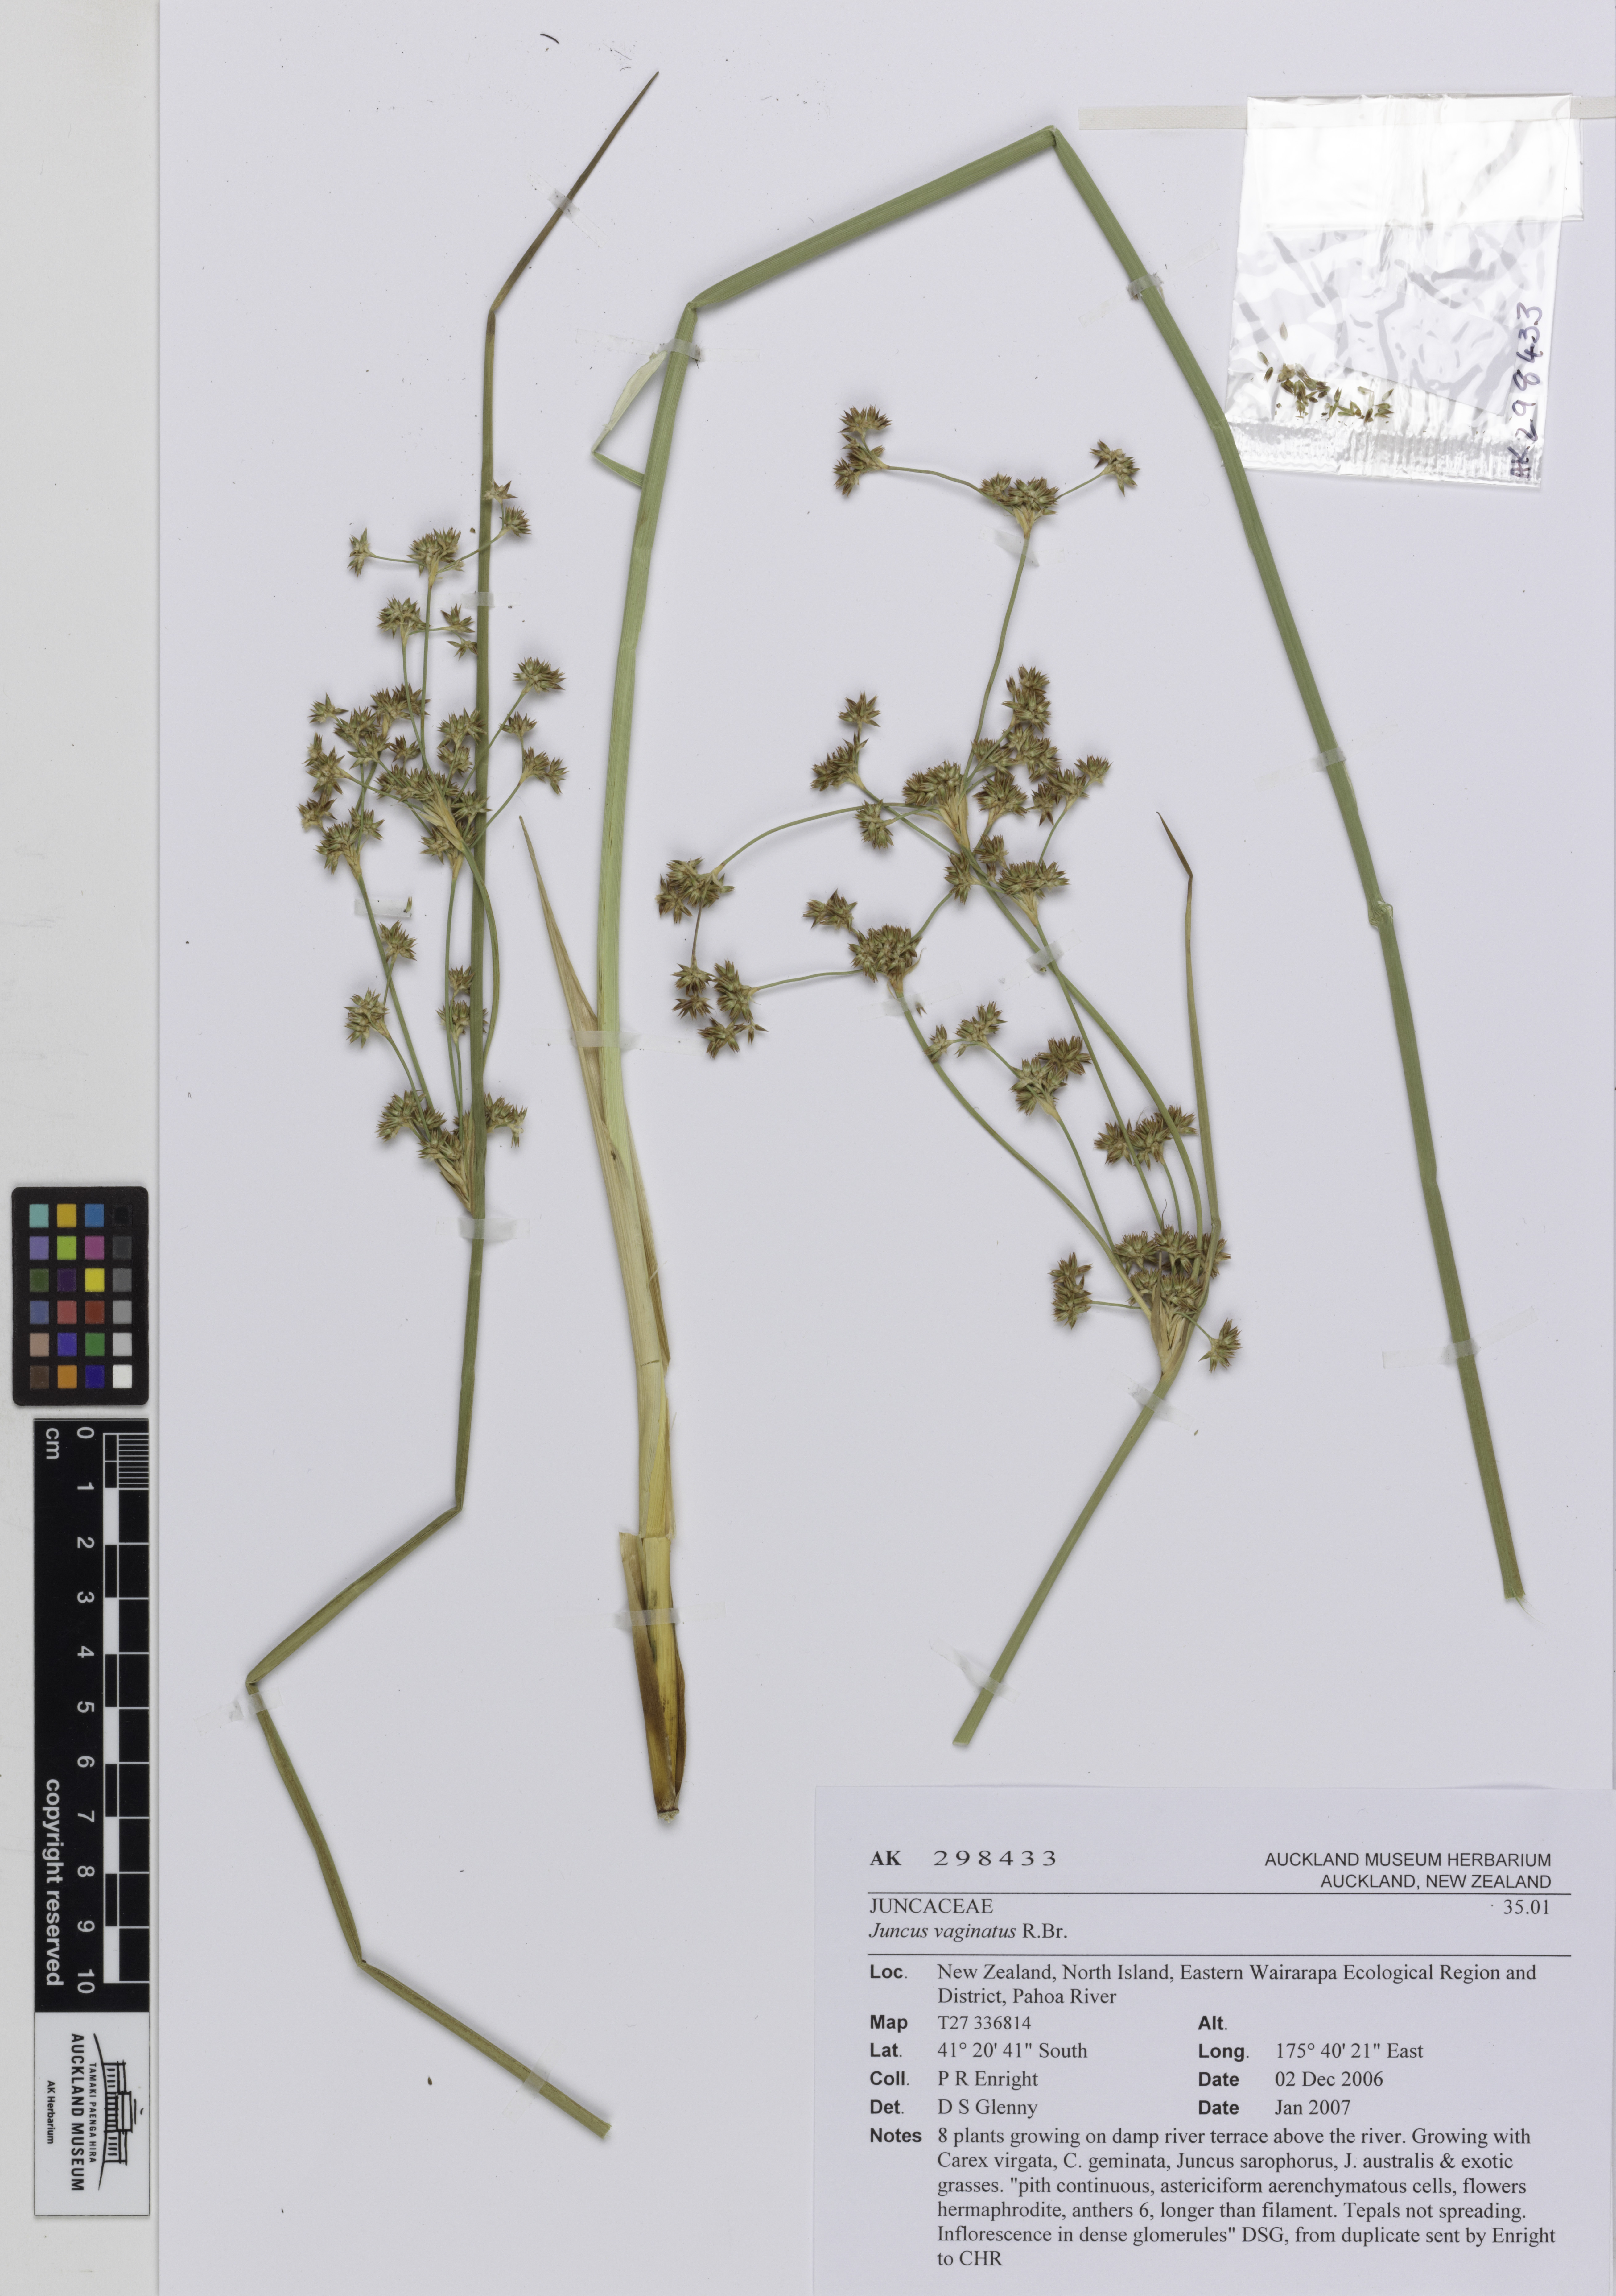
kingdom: Plantae
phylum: Tracheophyta
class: Liliopsida
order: Poales
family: Juncaceae
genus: Juncus
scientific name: Juncus vaginatus
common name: Clustered rush
